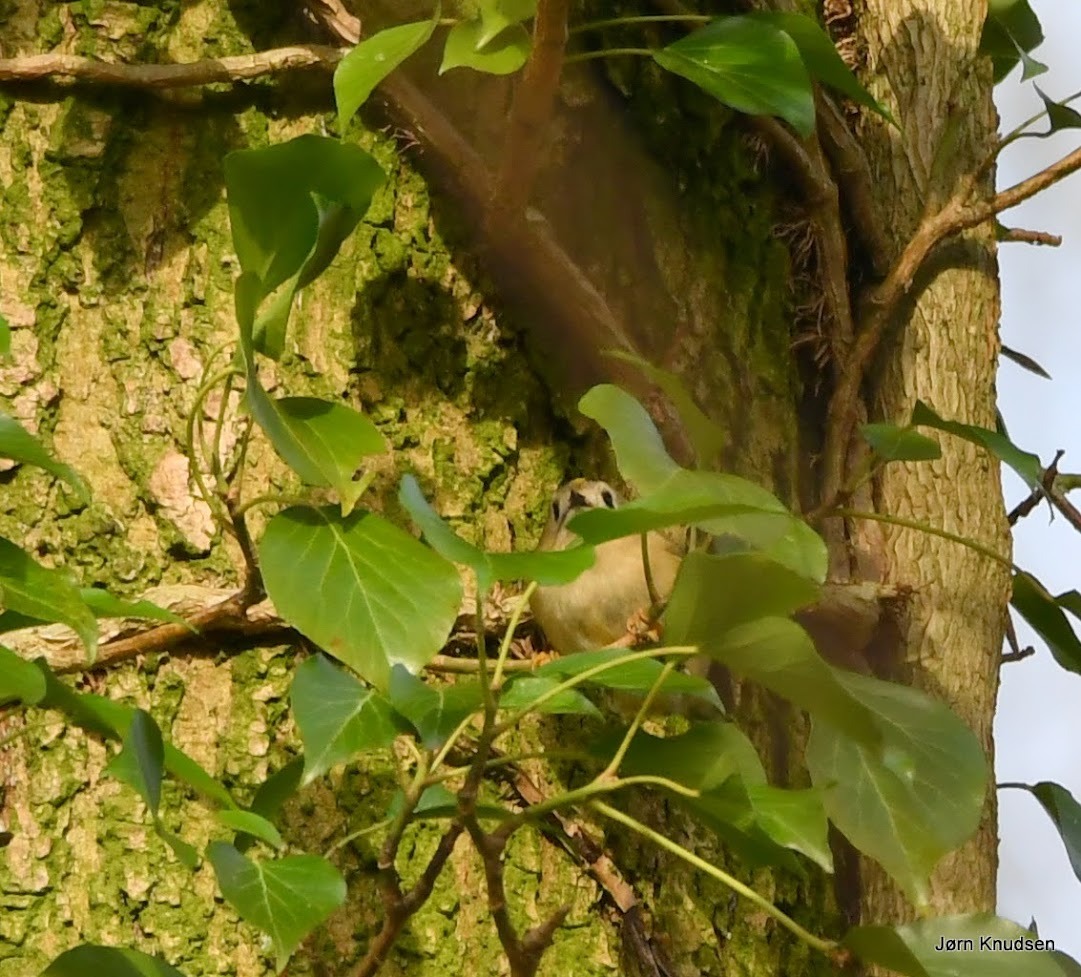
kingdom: Animalia
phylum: Chordata
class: Aves
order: Passeriformes
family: Regulidae
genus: Regulus
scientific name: Regulus regulus
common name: Fuglekonge
